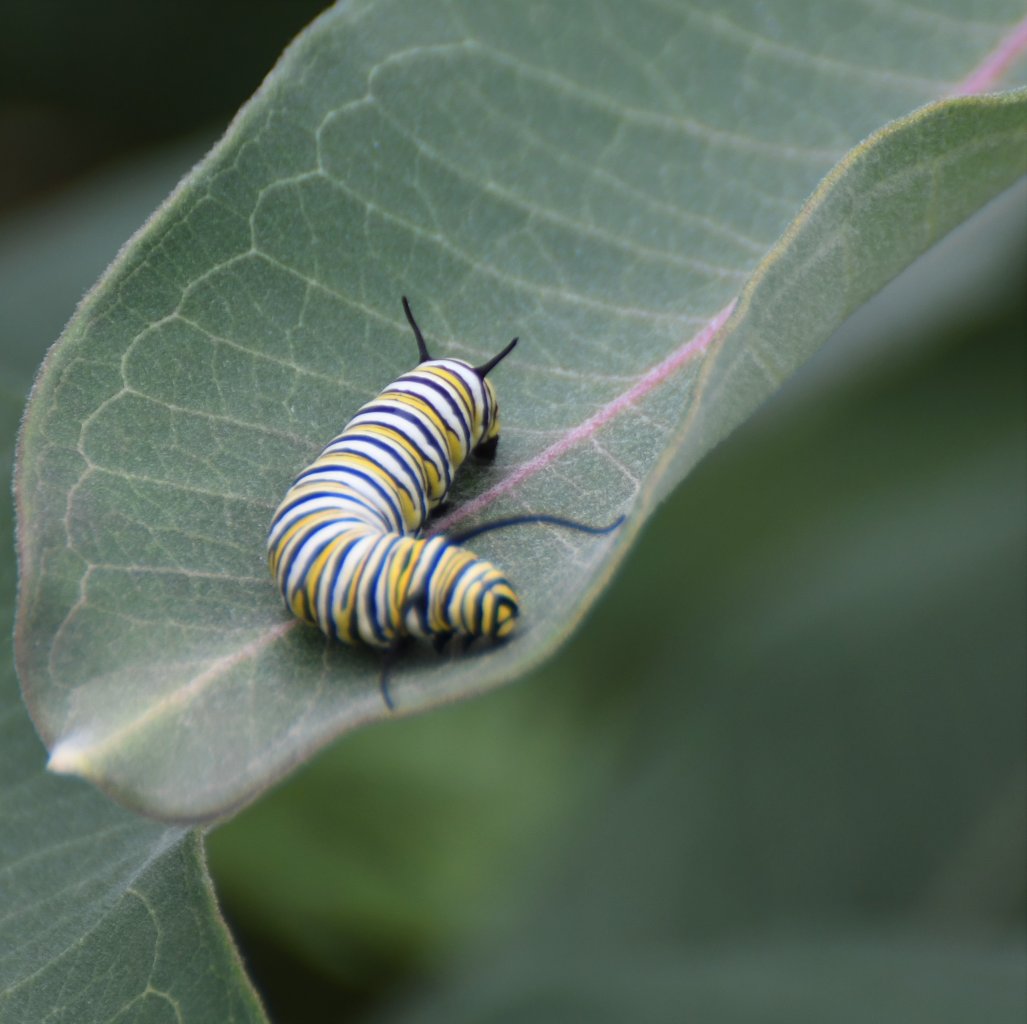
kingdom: Animalia
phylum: Arthropoda
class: Insecta
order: Lepidoptera
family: Nymphalidae
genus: Danaus
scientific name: Danaus plexippus
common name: Monarch
